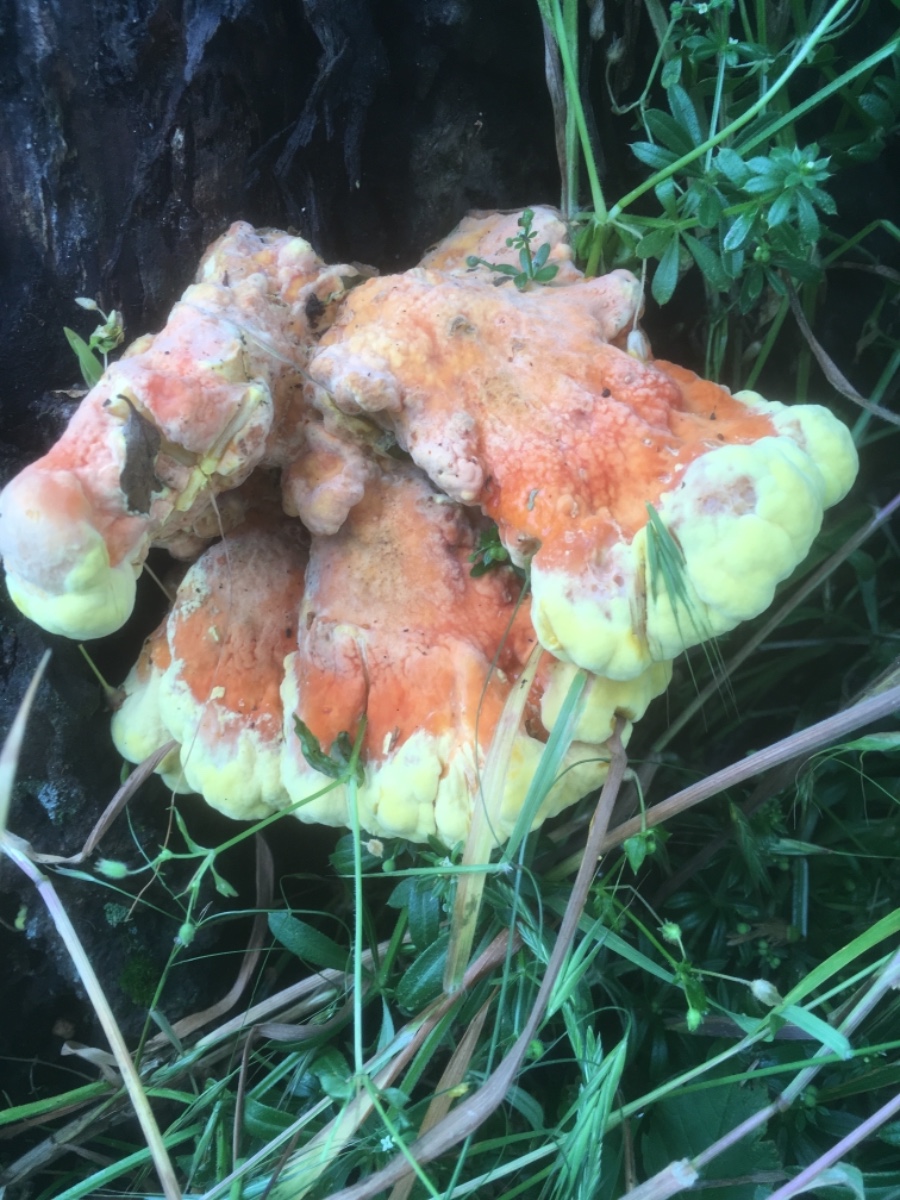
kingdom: Fungi
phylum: Basidiomycota
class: Agaricomycetes
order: Polyporales
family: Laetiporaceae
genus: Laetiporus
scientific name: Laetiporus sulphureus
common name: svovlporesvamp
